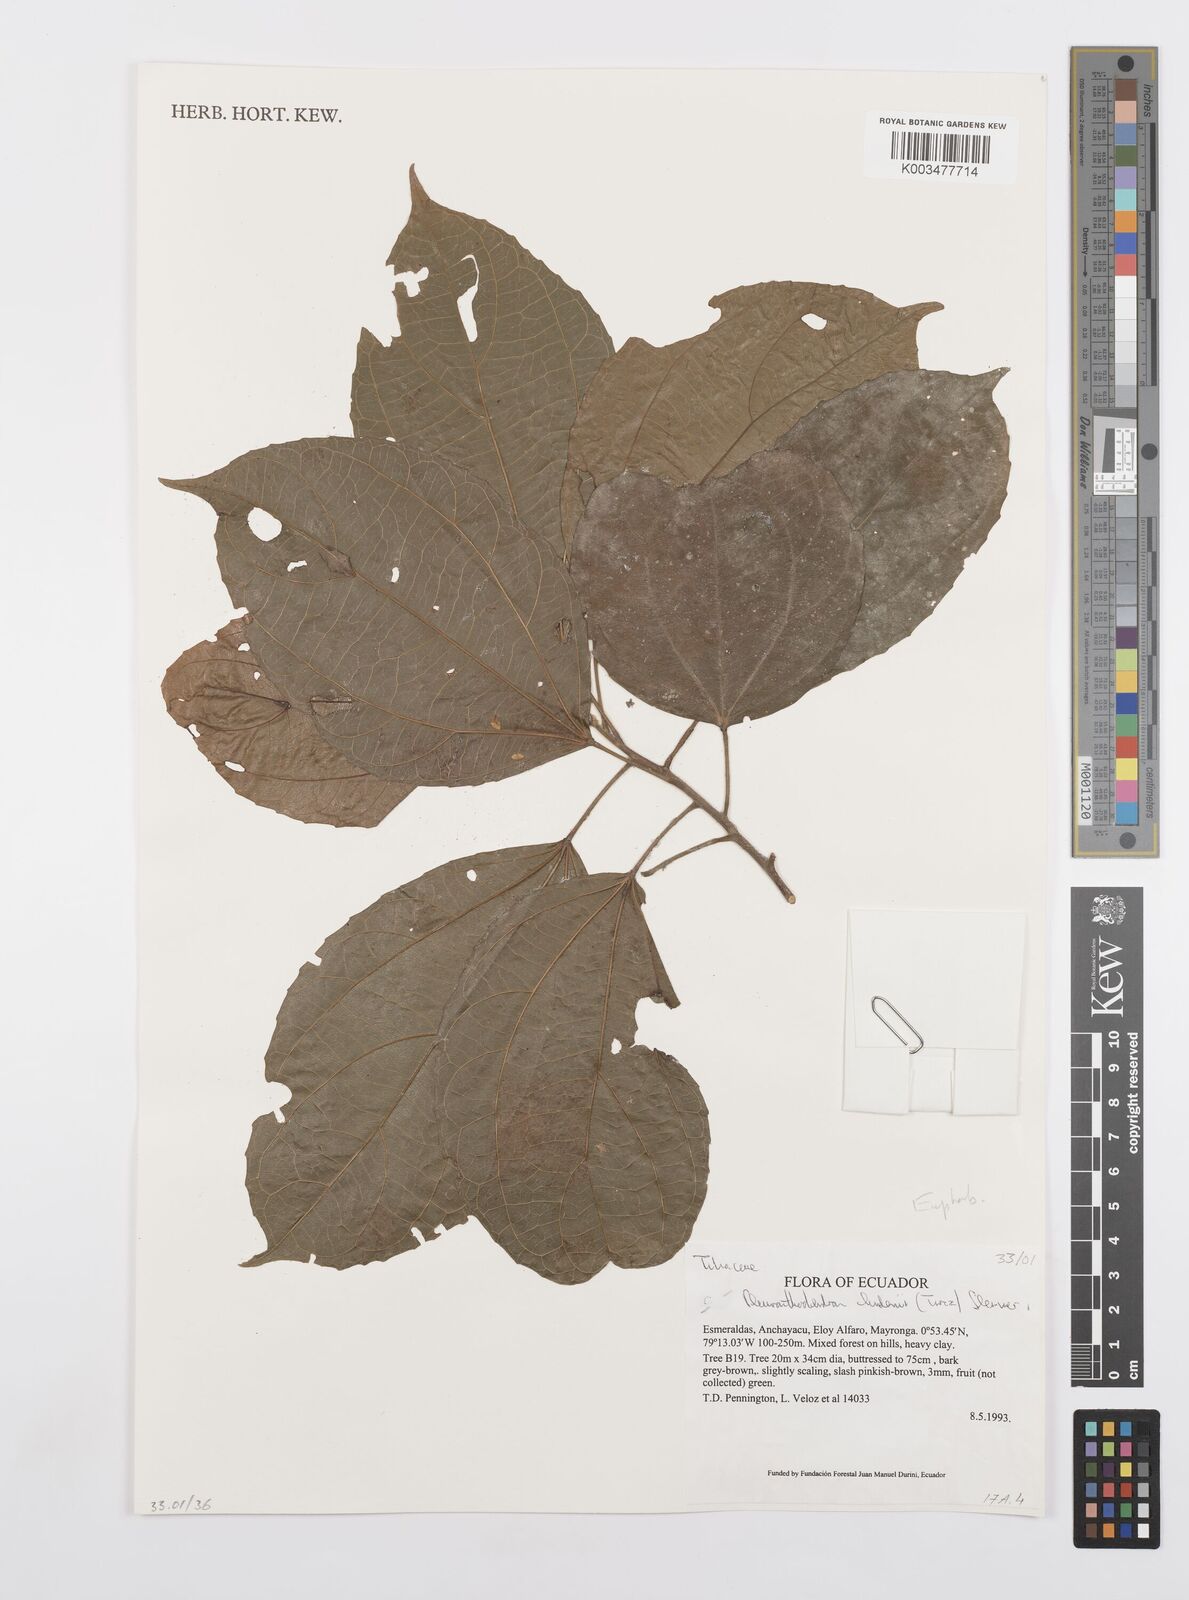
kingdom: Plantae
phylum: Tracheophyta
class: Magnoliopsida
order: Malpighiales
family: Salicaceae
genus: Pleuranthodendron
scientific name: Pleuranthodendron lindenii
